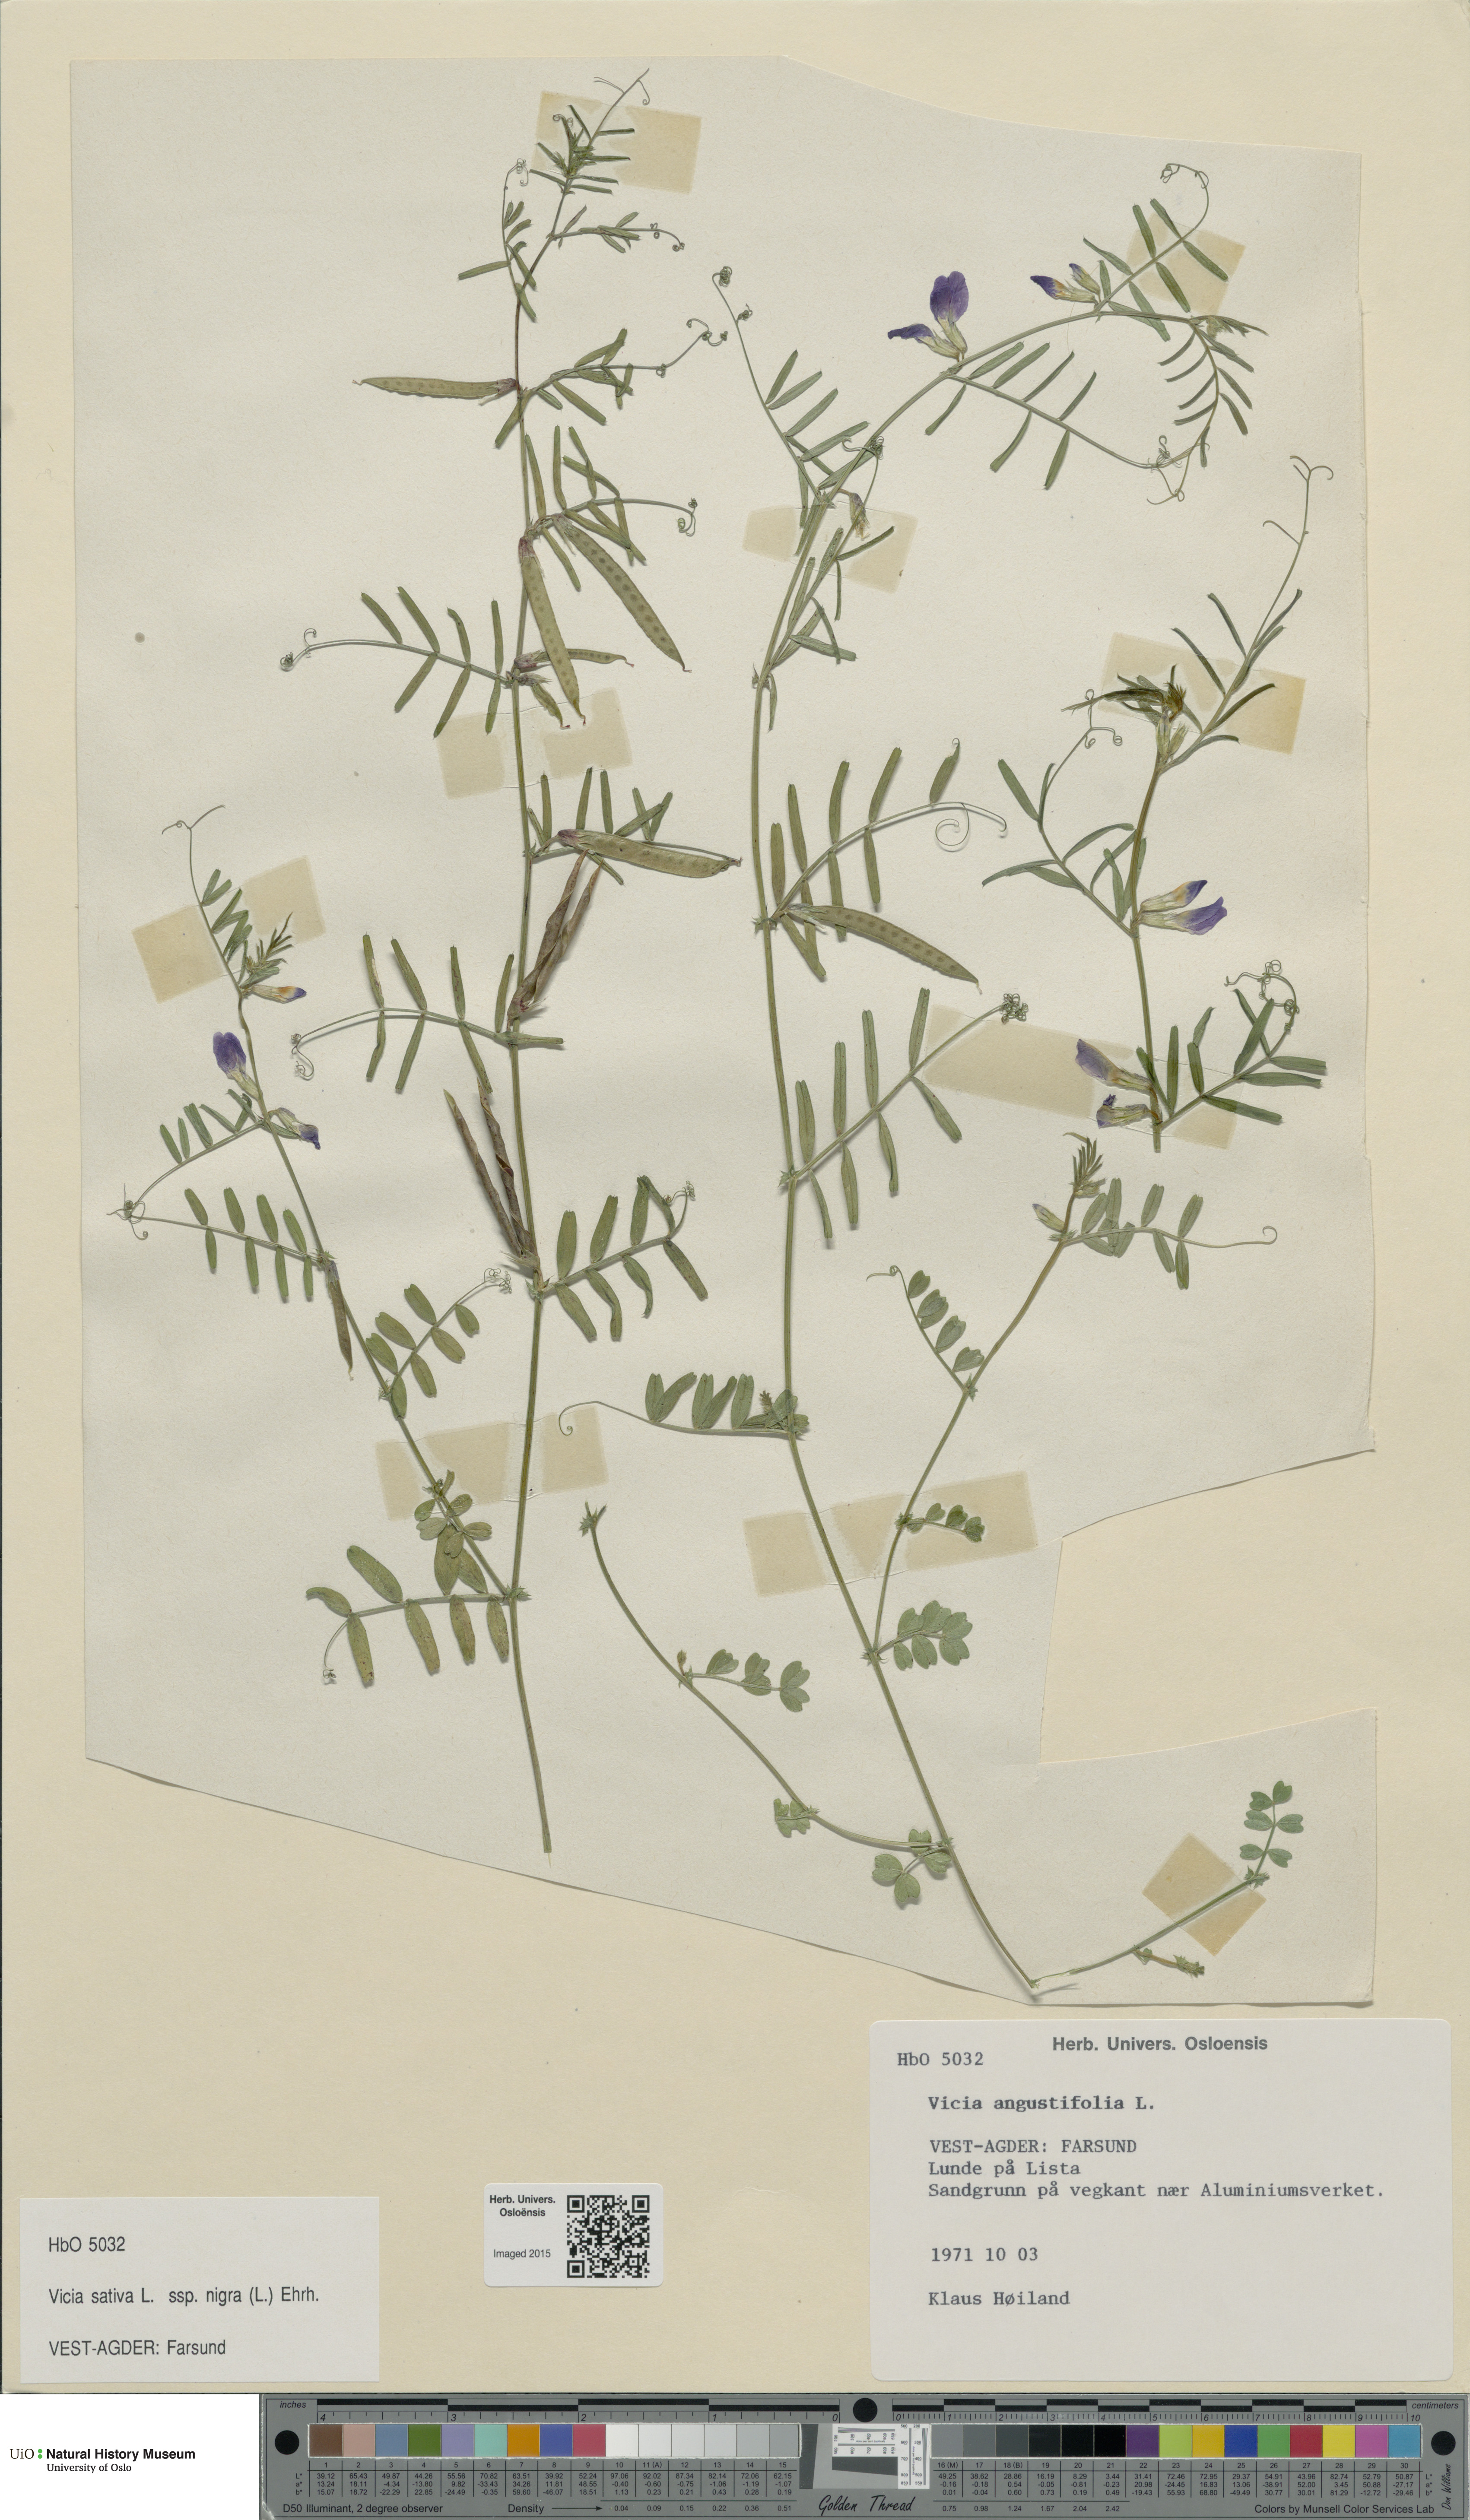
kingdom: Plantae
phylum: Tracheophyta
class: Magnoliopsida
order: Fabales
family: Fabaceae
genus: Vicia
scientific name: Vicia sativa
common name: Garden vetch
